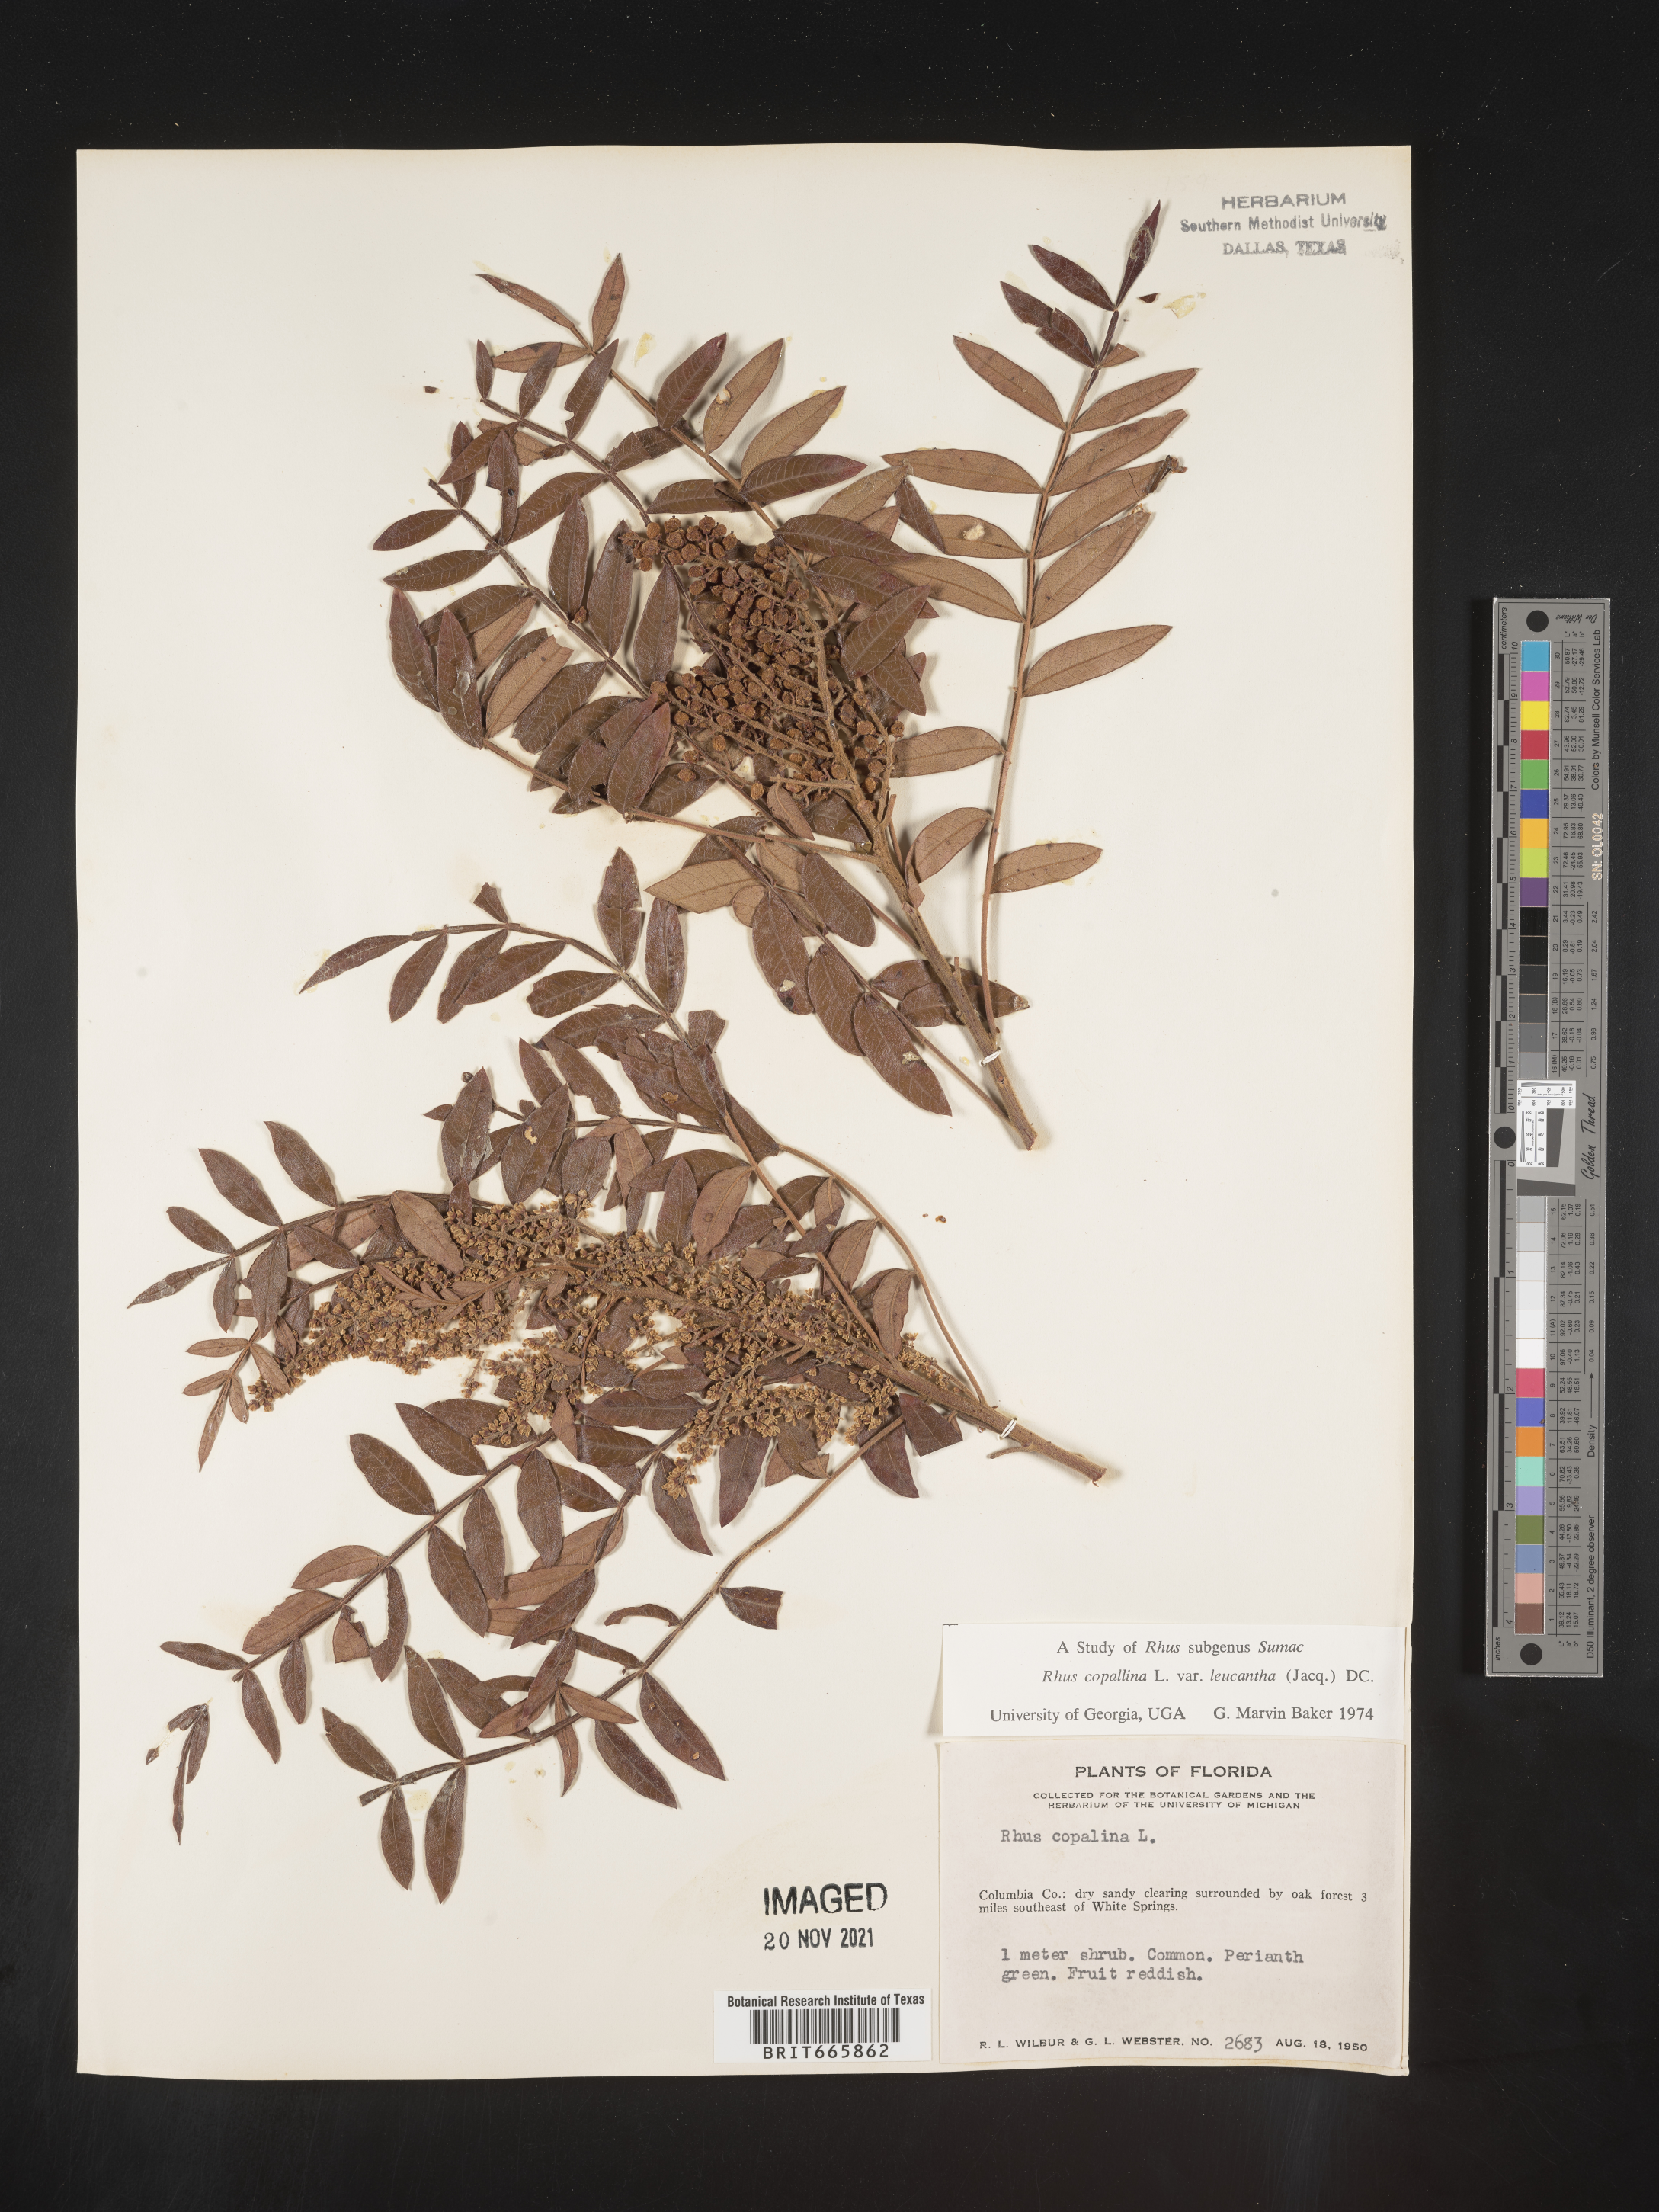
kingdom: Plantae
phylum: Tracheophyta
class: Magnoliopsida
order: Sapindales
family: Anacardiaceae
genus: Rhus
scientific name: Rhus copallina
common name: Shining sumac
